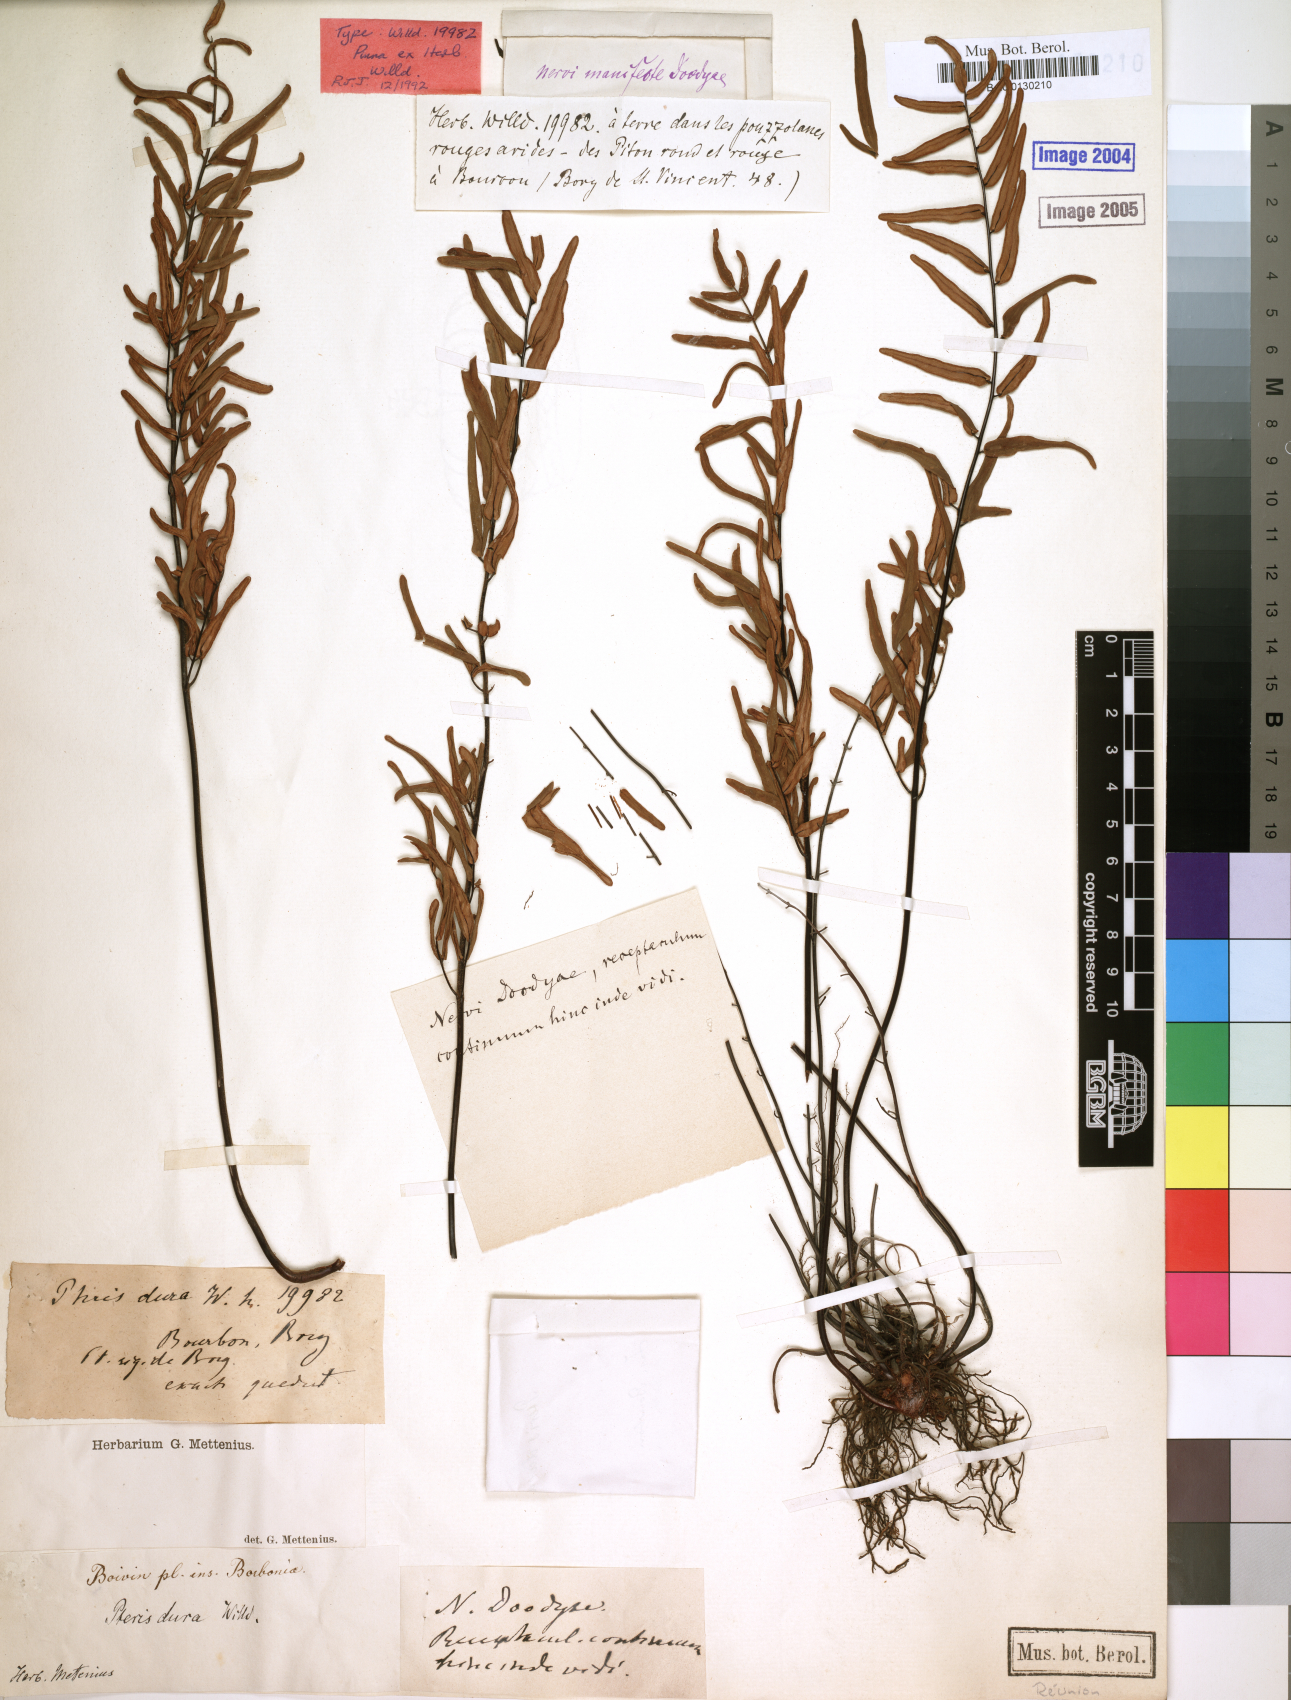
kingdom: Plantae
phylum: Tracheophyta
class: Polypodiopsida
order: Polypodiales
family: Pteridaceae
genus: Pellaea
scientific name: Pellaea pectiniformis
